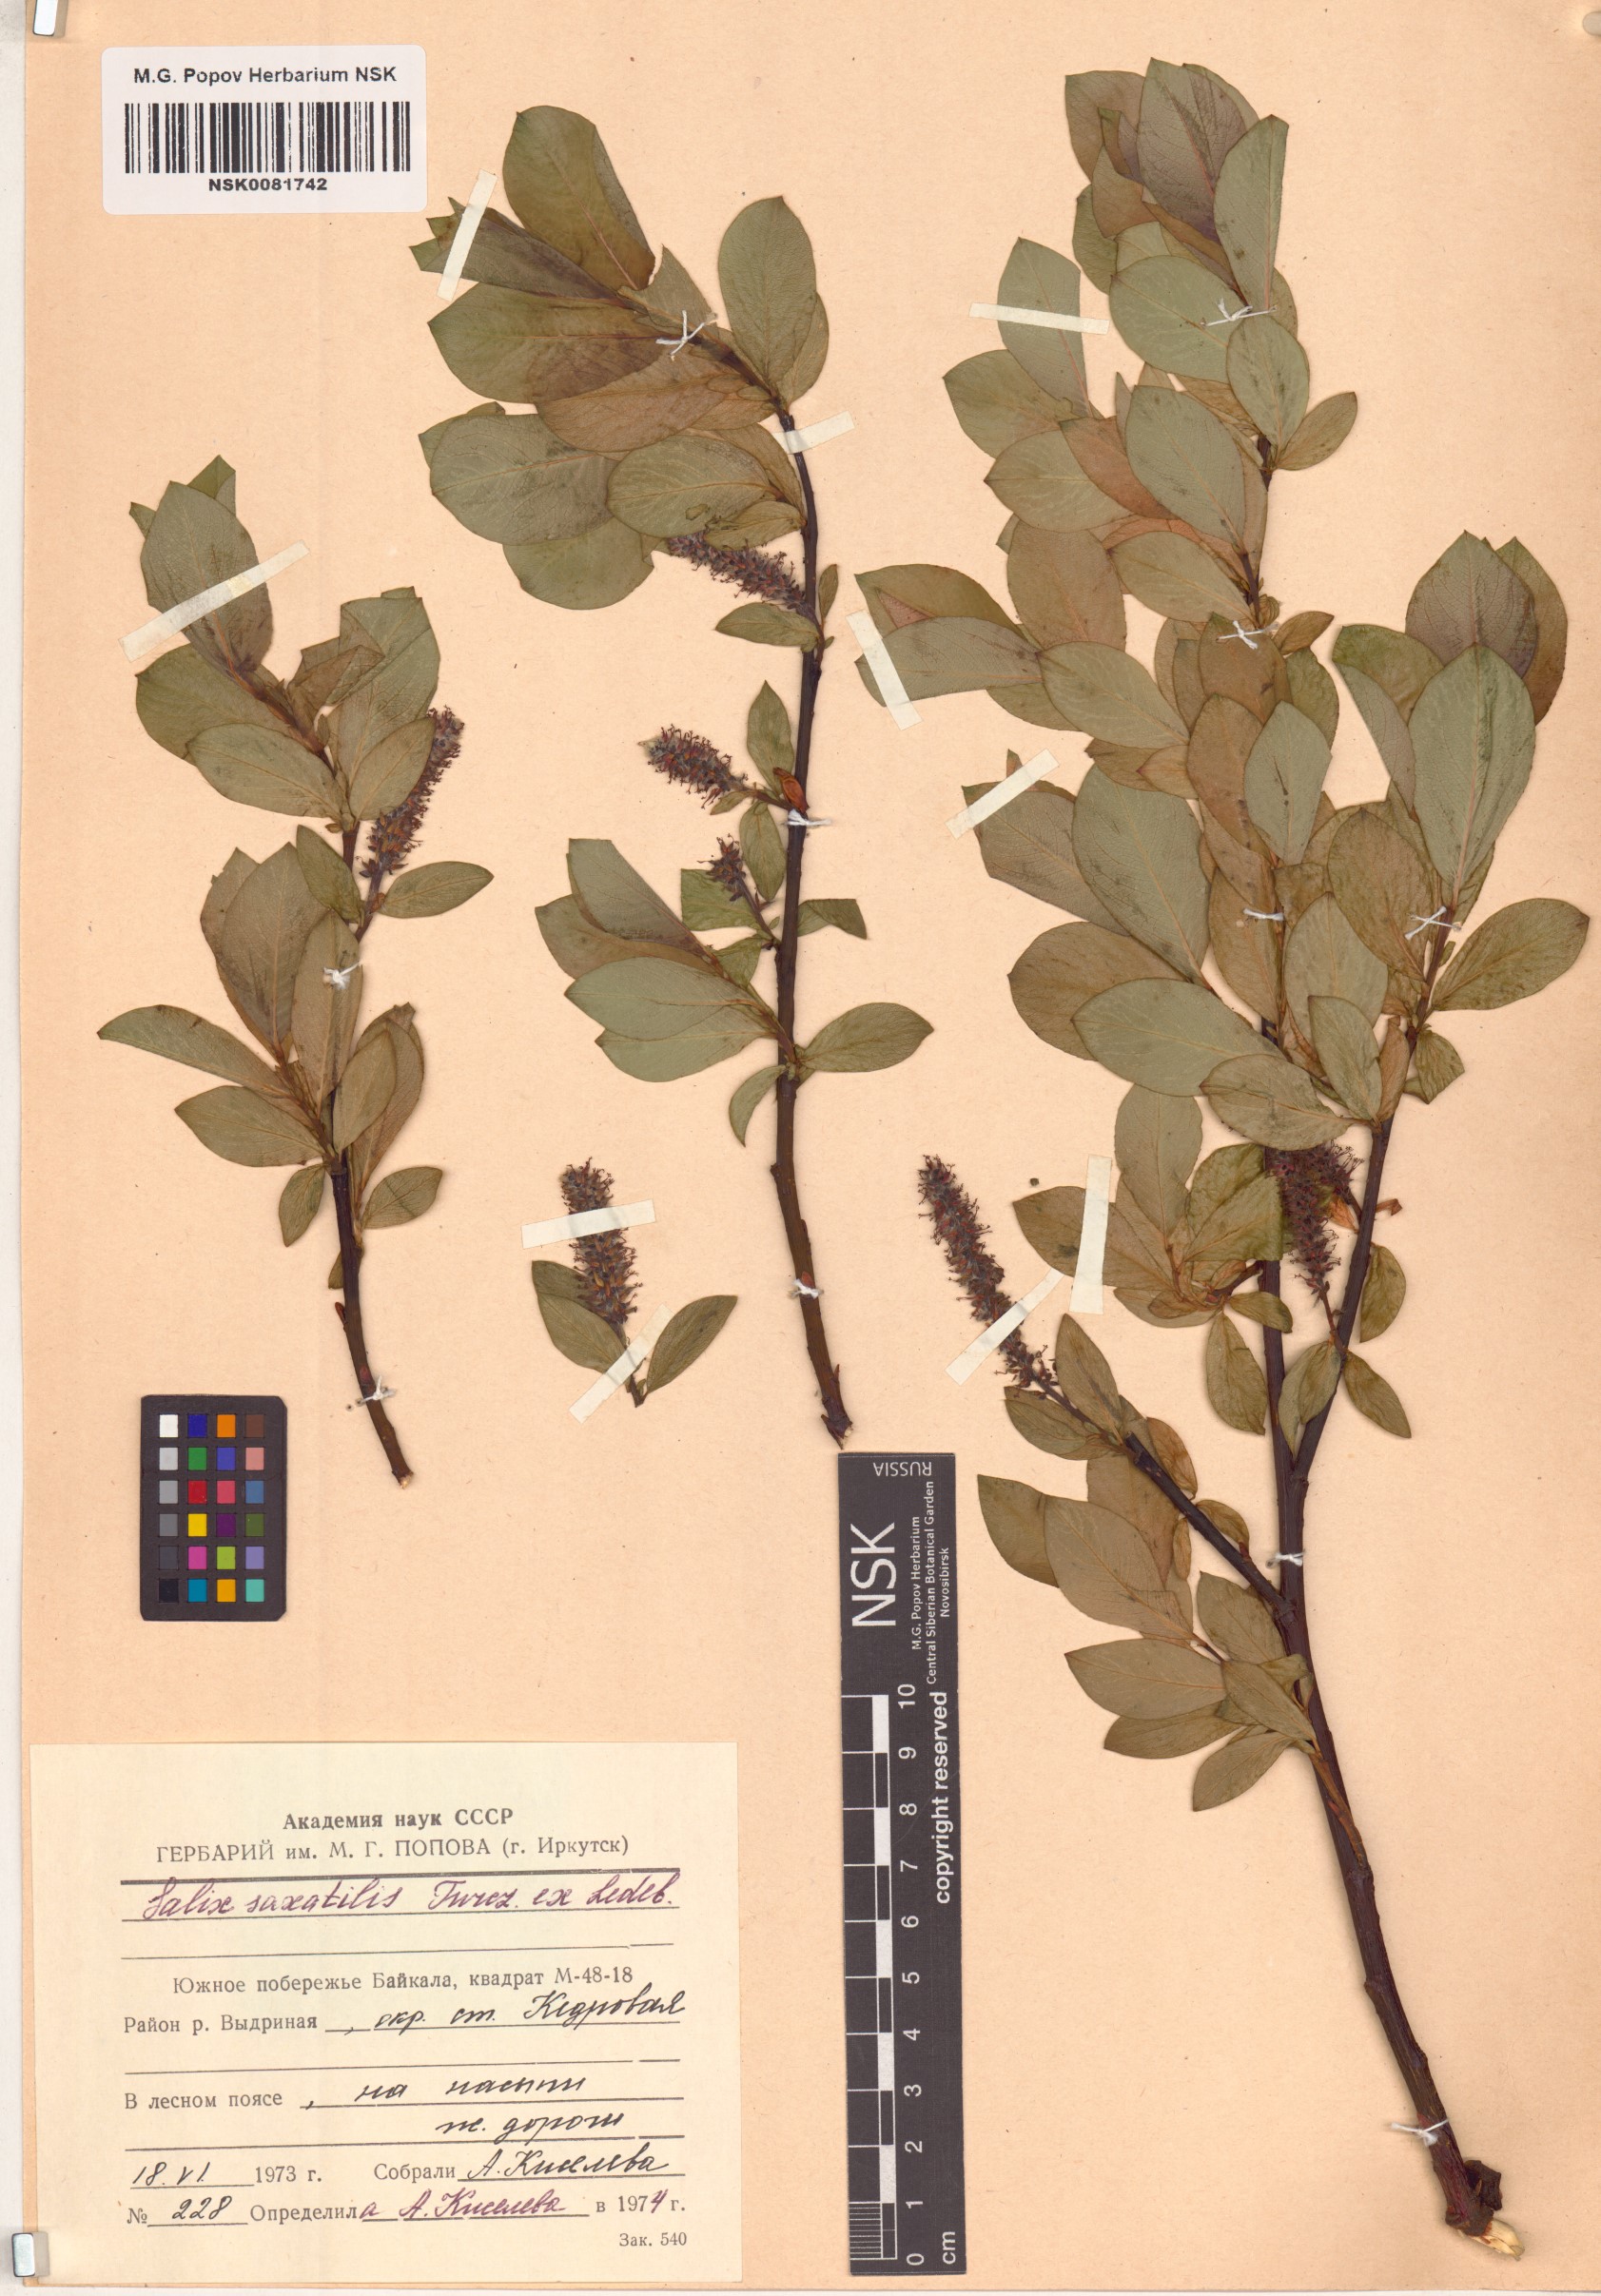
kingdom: Plantae
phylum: Tracheophyta
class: Magnoliopsida
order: Malpighiales
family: Salicaceae
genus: Salix
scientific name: Salix saxatilis
